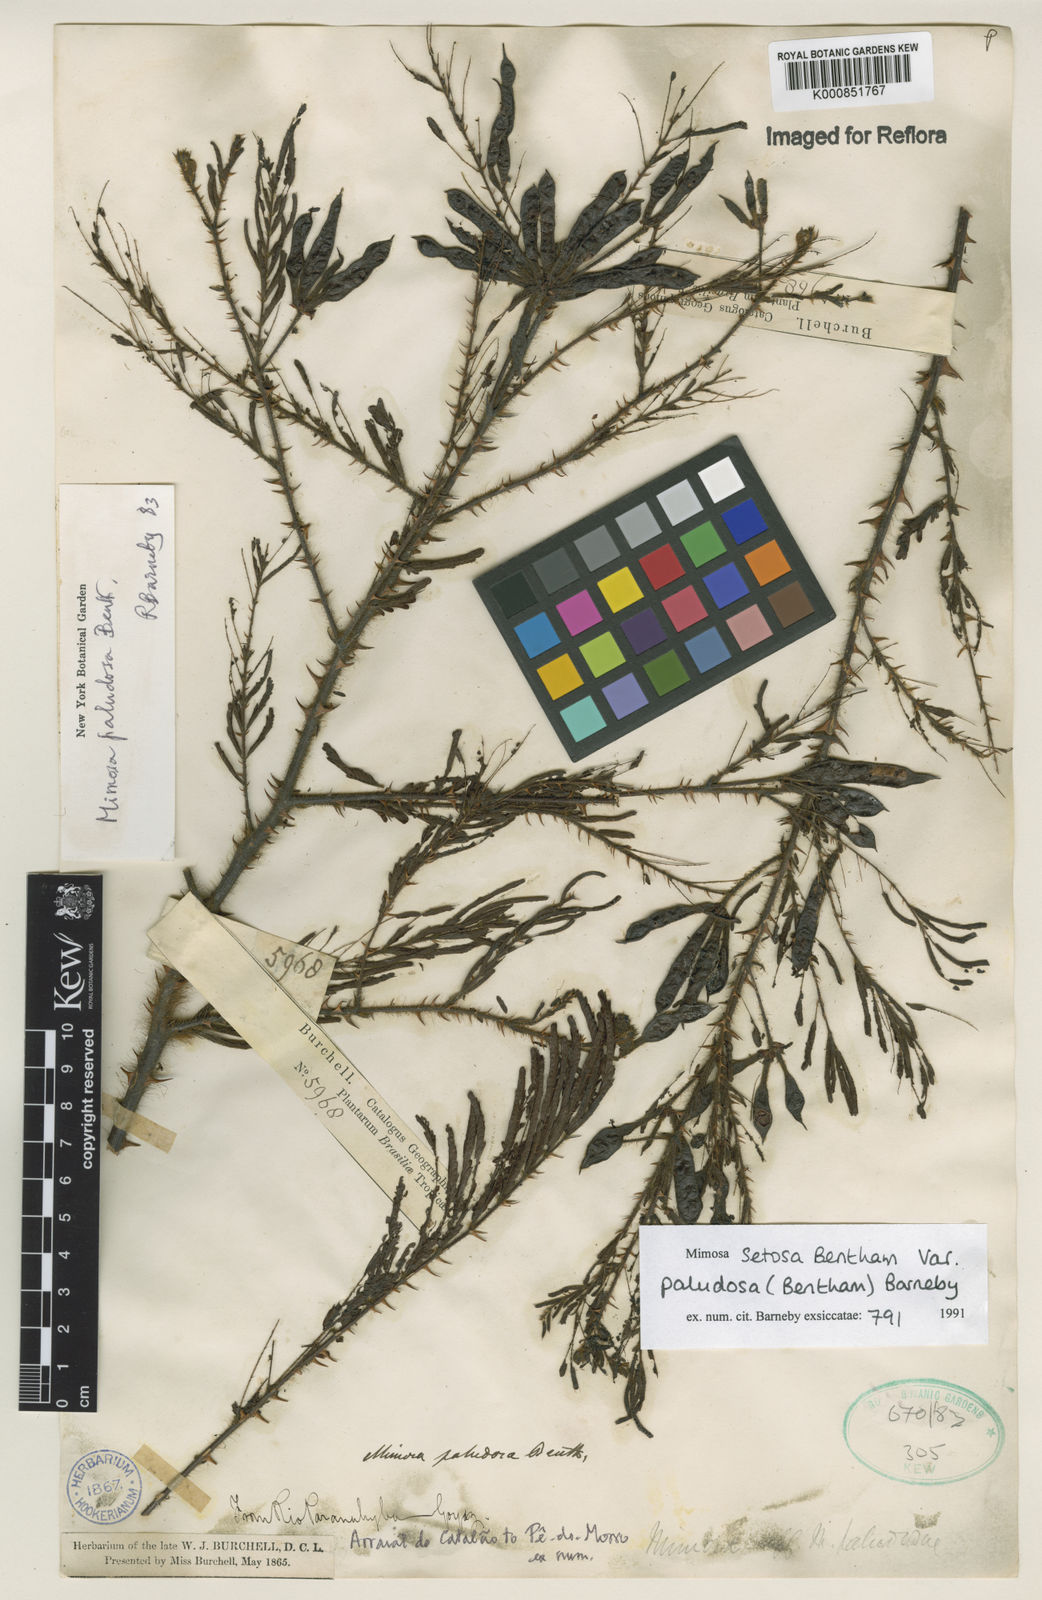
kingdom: Plantae
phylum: Tracheophyta
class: Magnoliopsida
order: Fabales
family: Fabaceae
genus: Mimosa
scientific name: Mimosa paludosa
